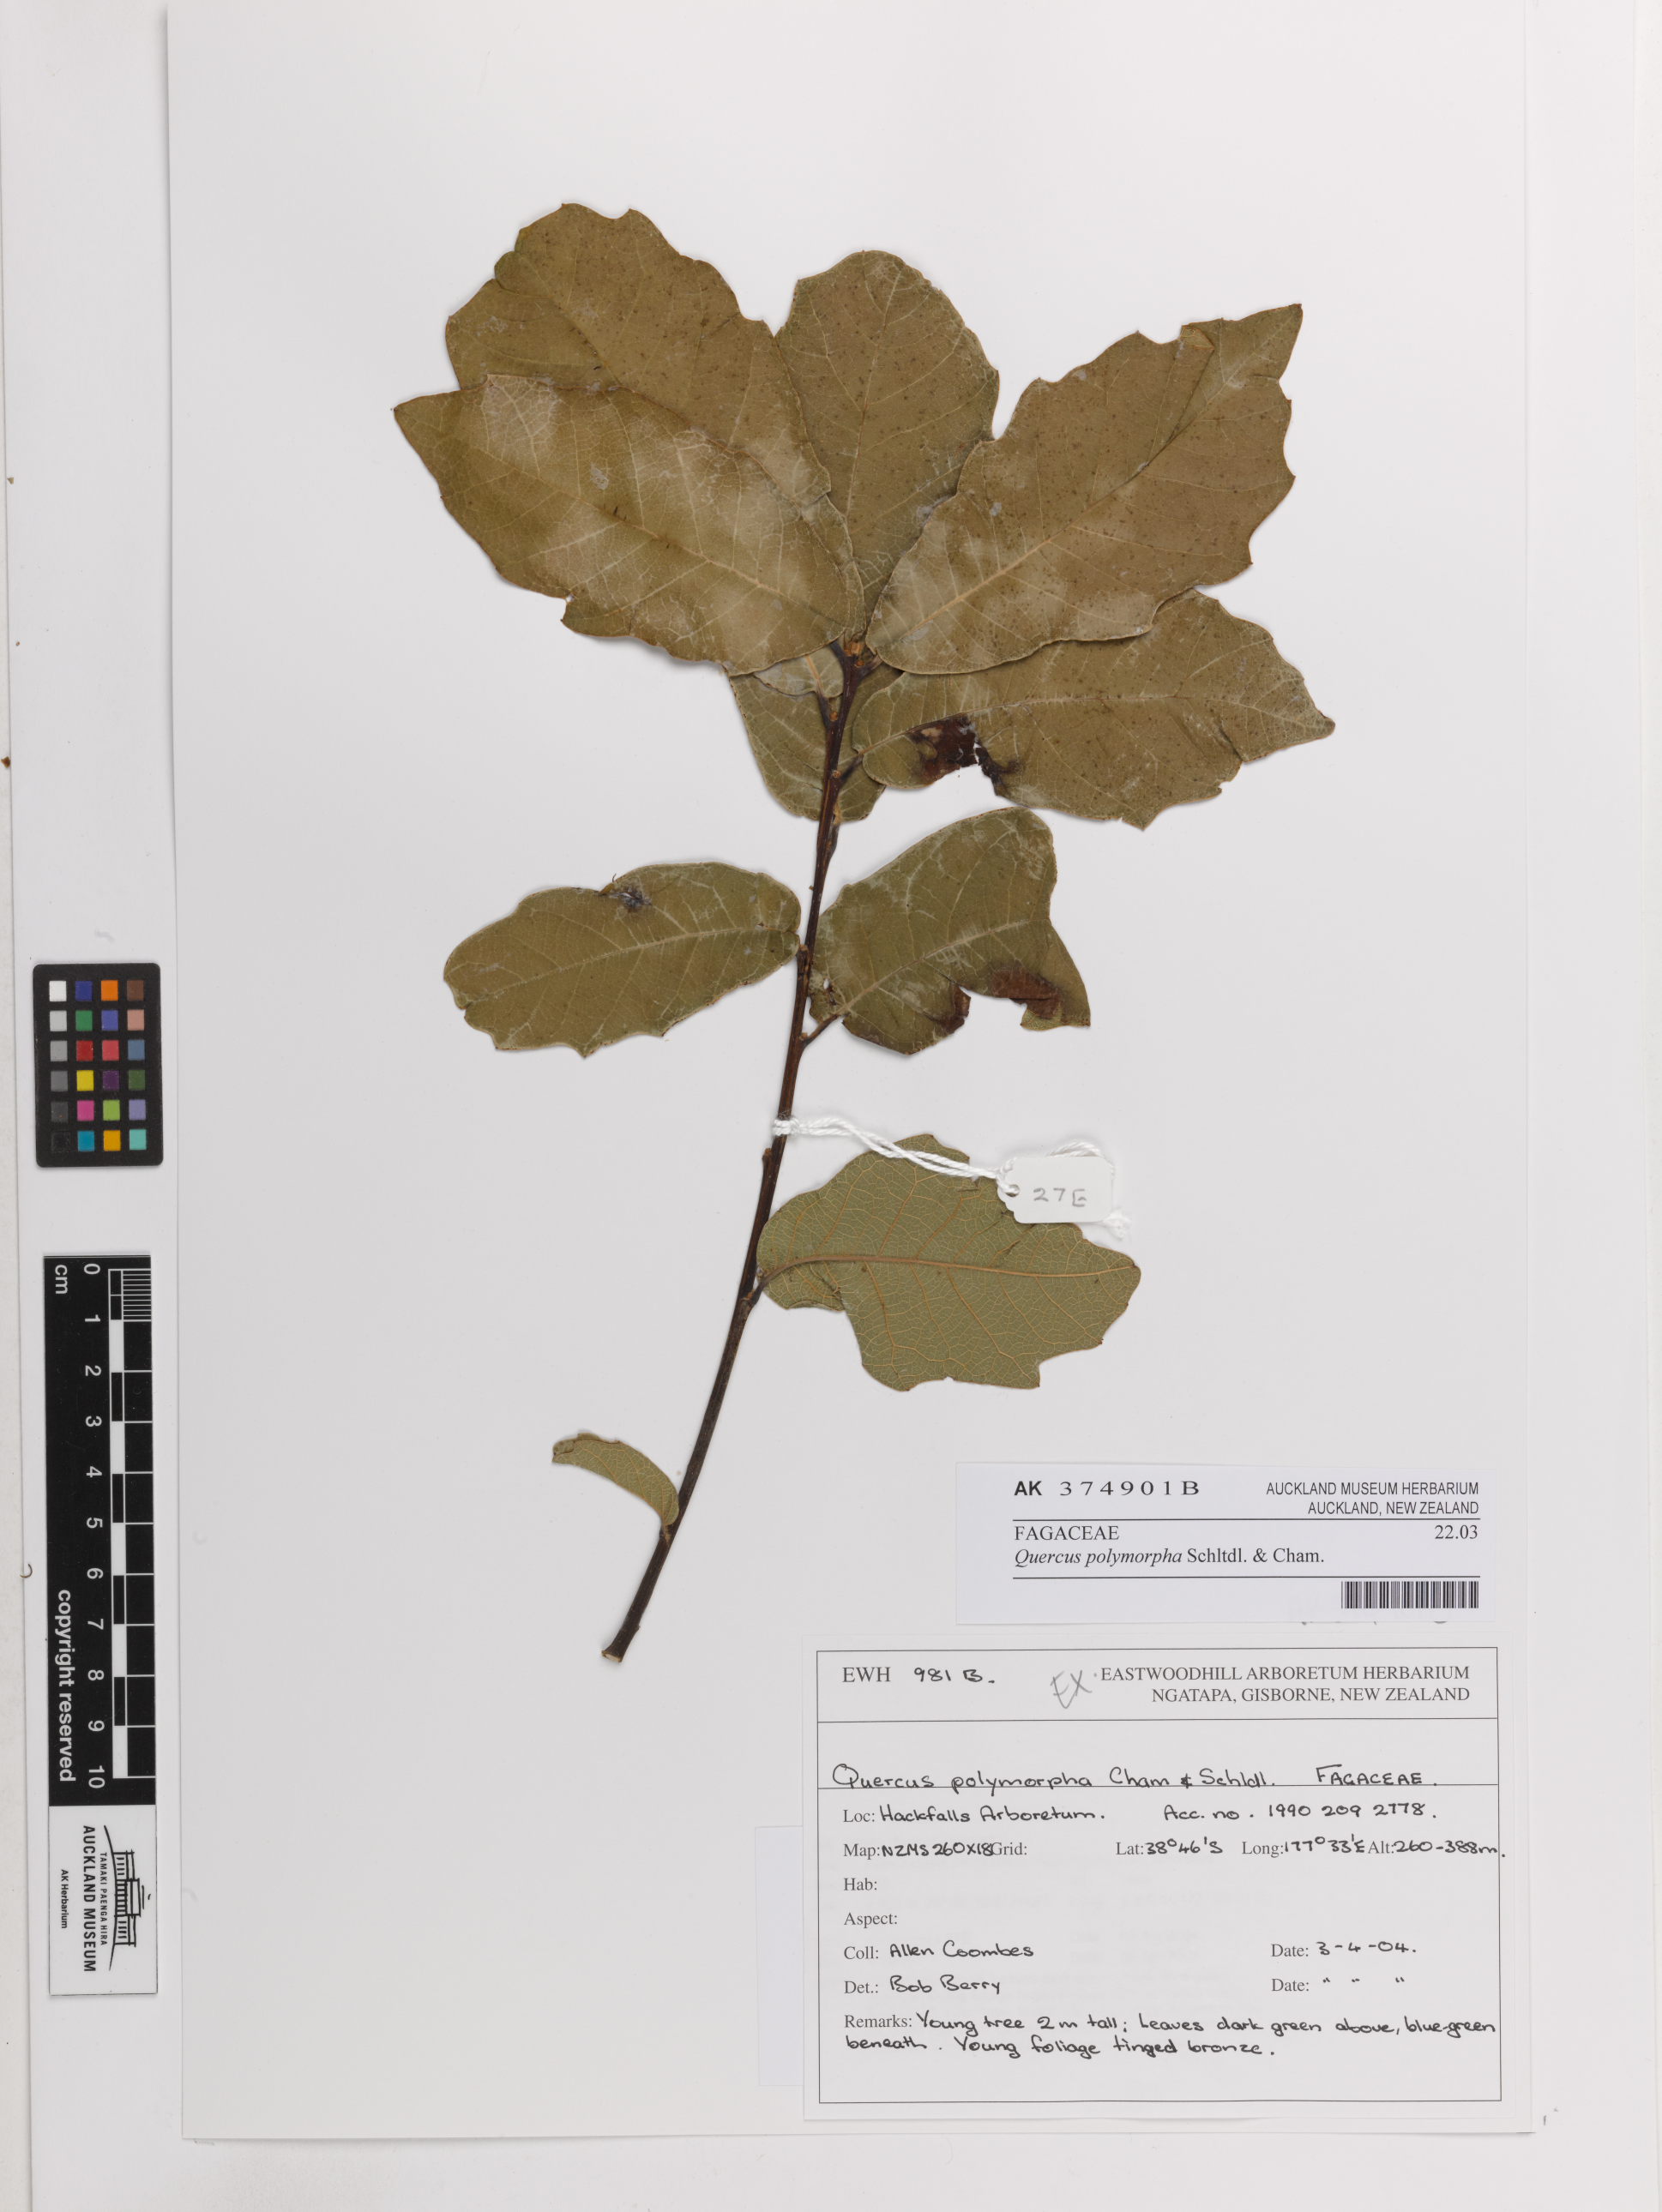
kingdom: Plantae
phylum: Tracheophyta
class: Magnoliopsida
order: Fagales
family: Fagaceae
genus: Quercus
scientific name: Quercus polymorpha
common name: Mexican white oak
